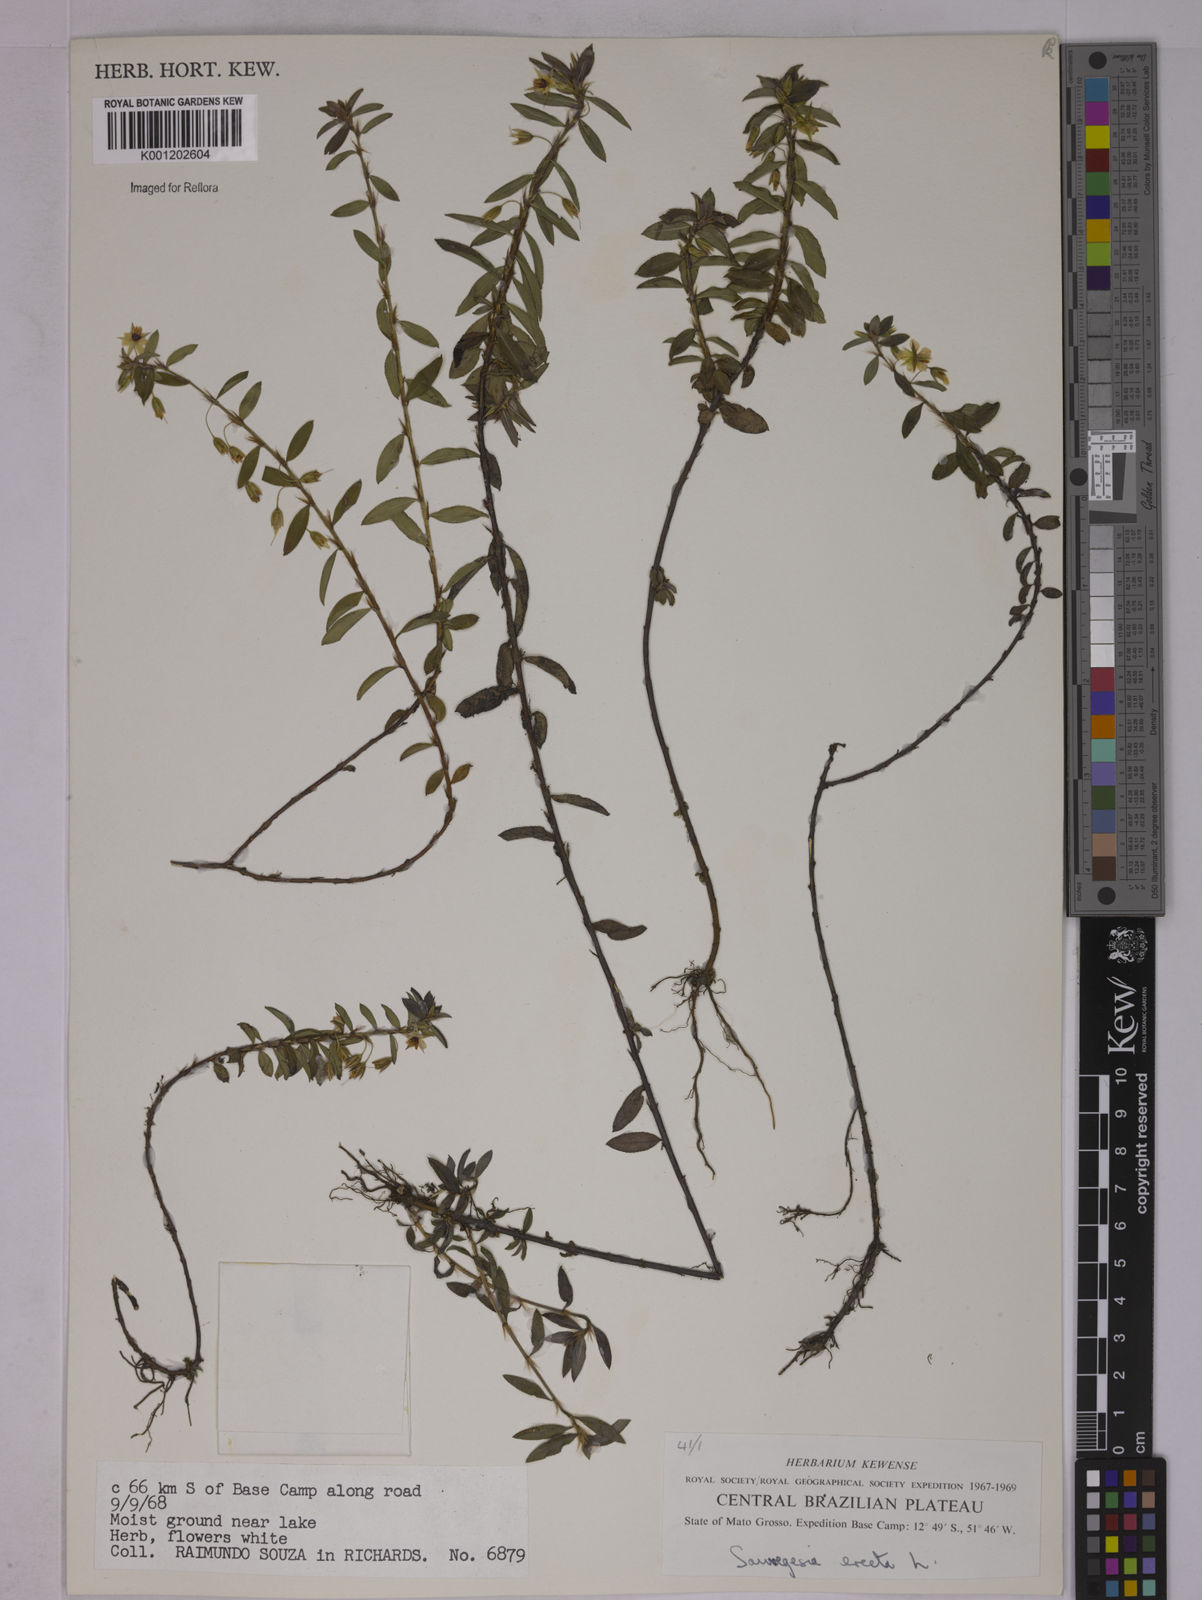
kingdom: Plantae
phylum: Tracheophyta
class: Magnoliopsida
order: Malpighiales
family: Ochnaceae
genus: Sauvagesia
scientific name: Sauvagesia erecta
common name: Creole tea
